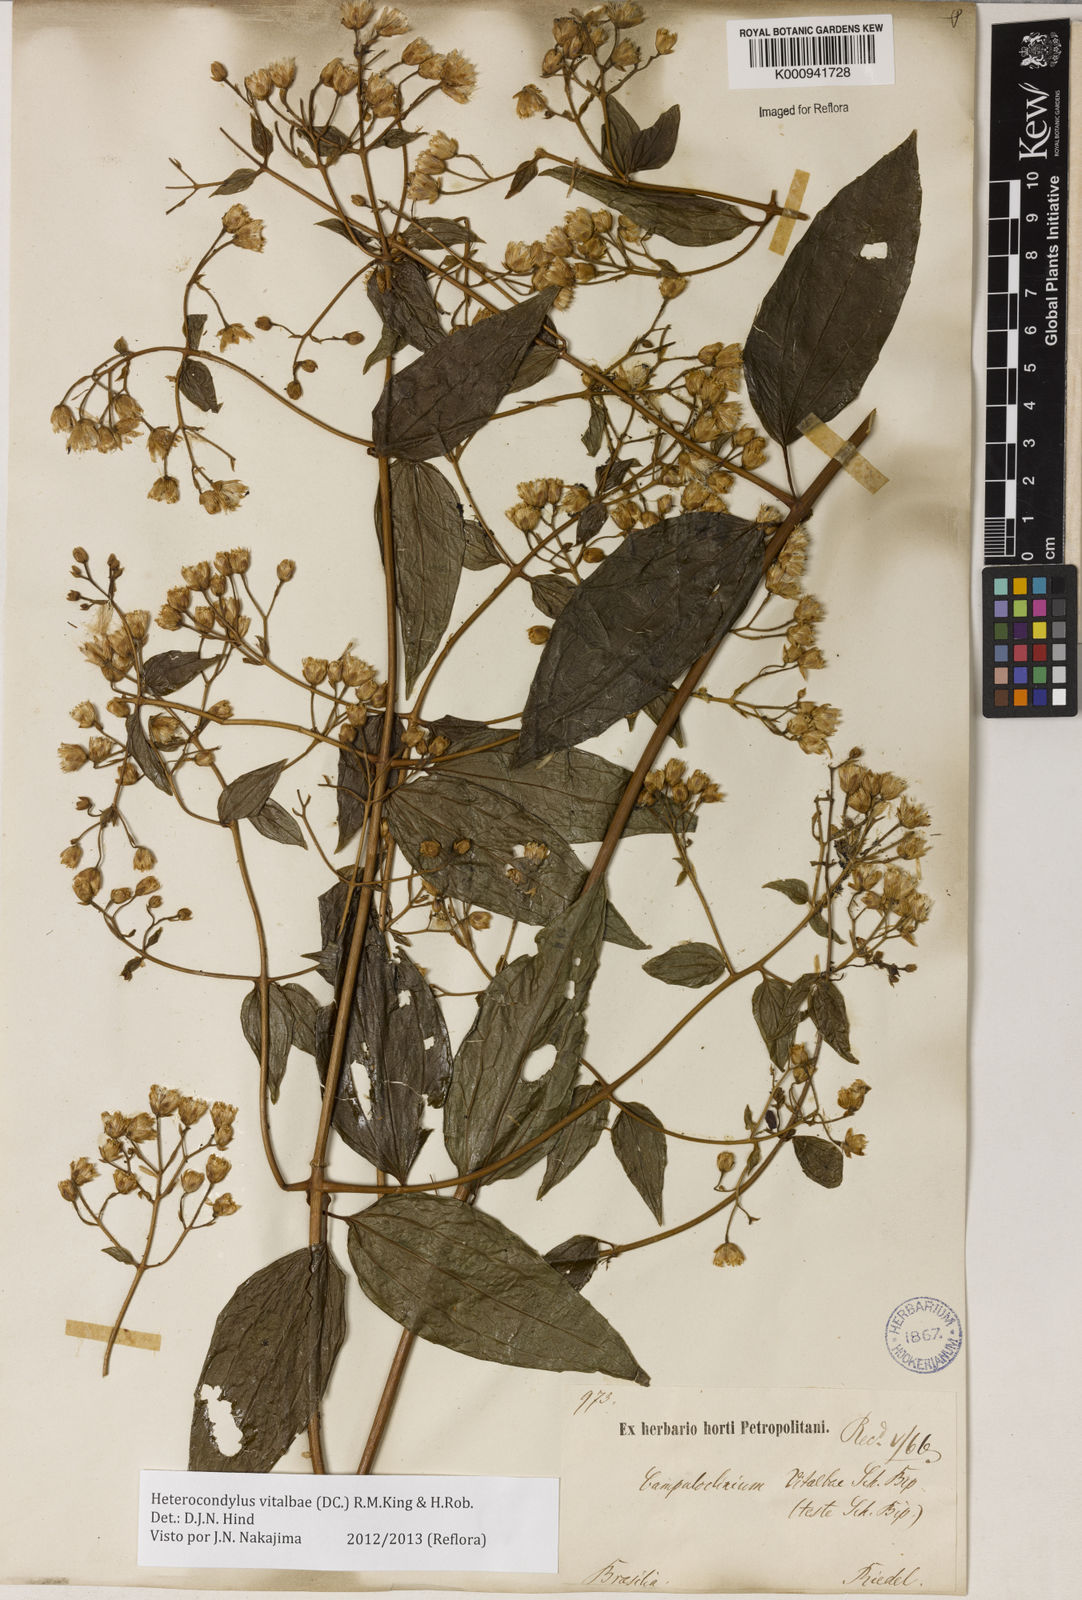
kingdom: Plantae
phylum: Tracheophyta
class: Magnoliopsida
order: Asterales
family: Asteraceae
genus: Heterocondylus
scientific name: Heterocondylus vitalbae
